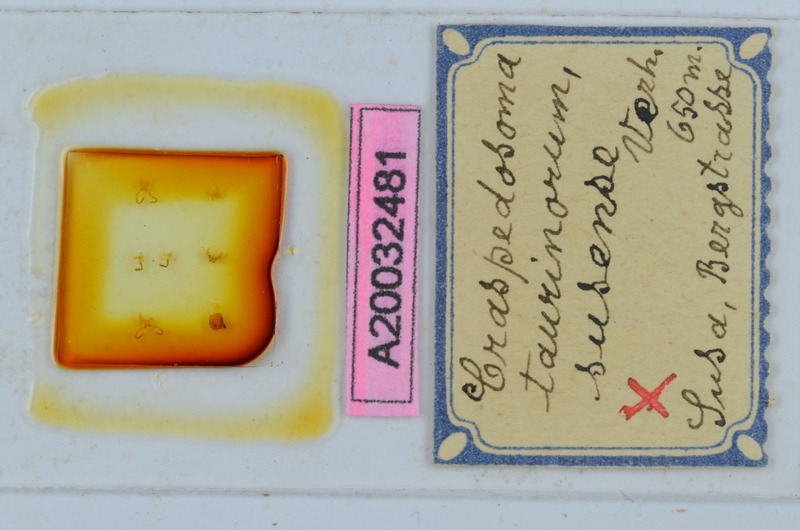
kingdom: Animalia
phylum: Arthropoda
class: Diplopoda
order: Chordeumatida
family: Craspedosomatidae
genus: Craspedosoma
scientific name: Craspedosoma taurinorum
